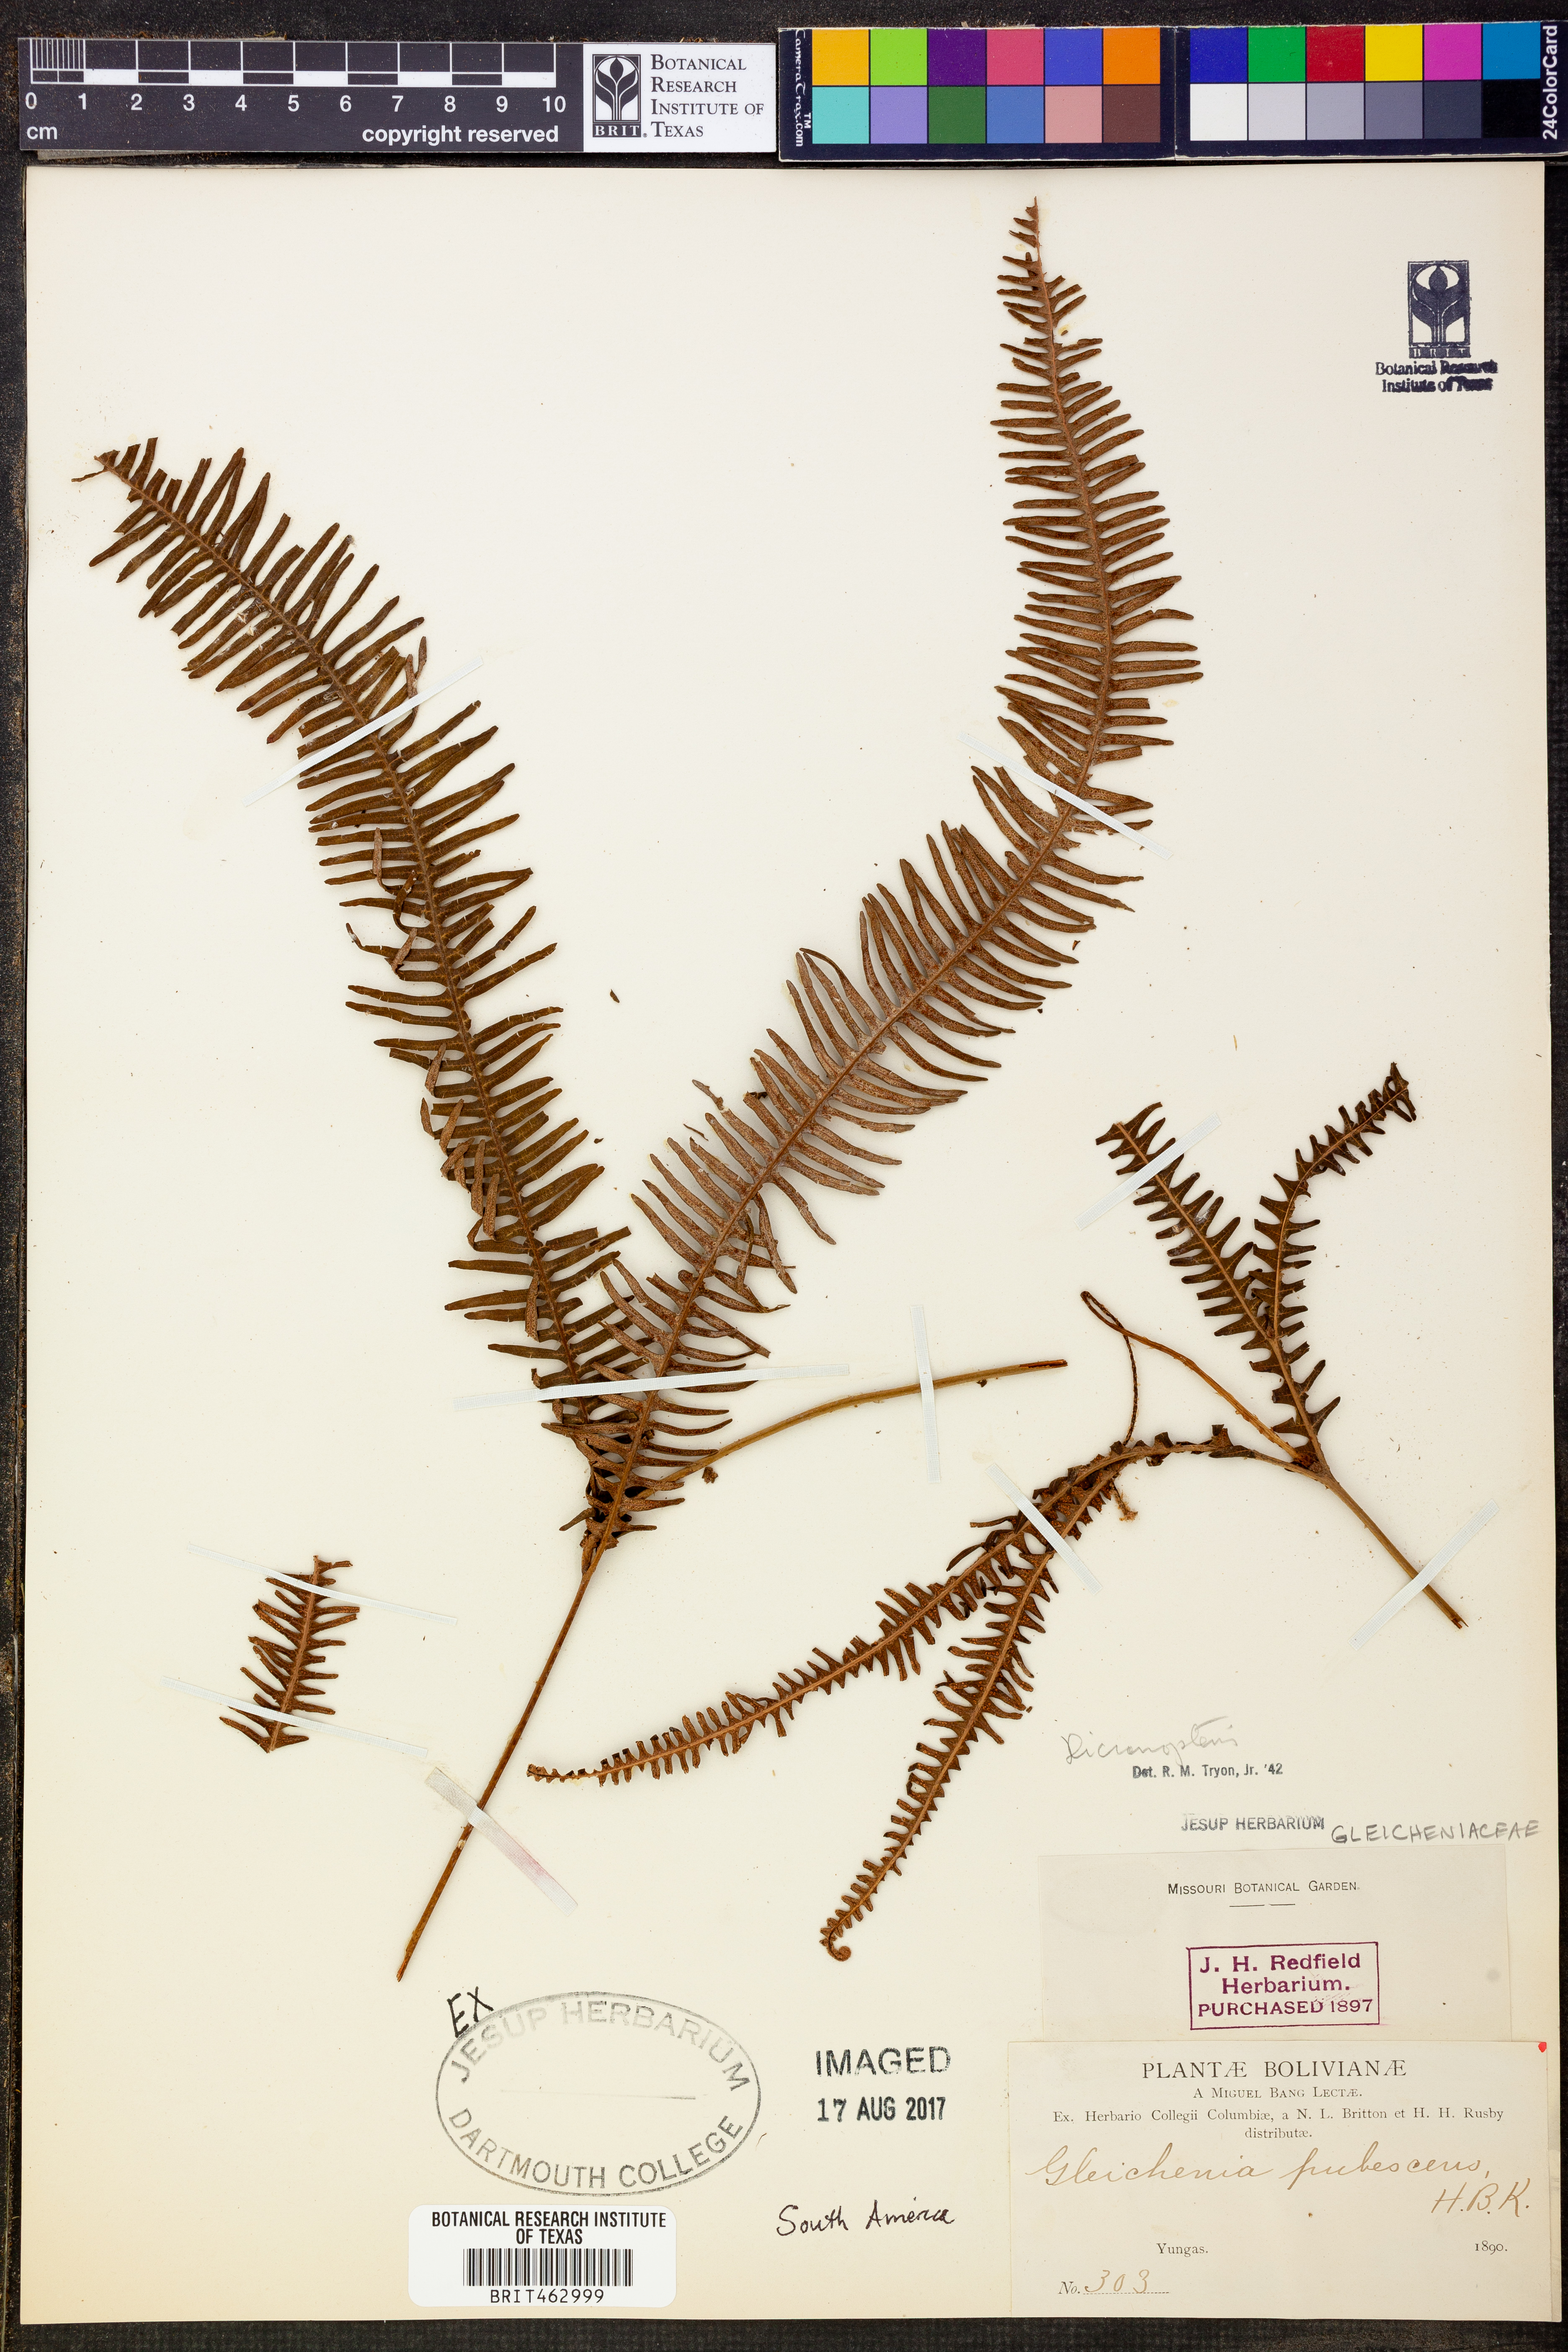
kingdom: Plantae
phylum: Tracheophyta
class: Polypodiopsida
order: Gleicheniales
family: Gleicheniaceae
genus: Dicranopteris
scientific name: Dicranopteris
